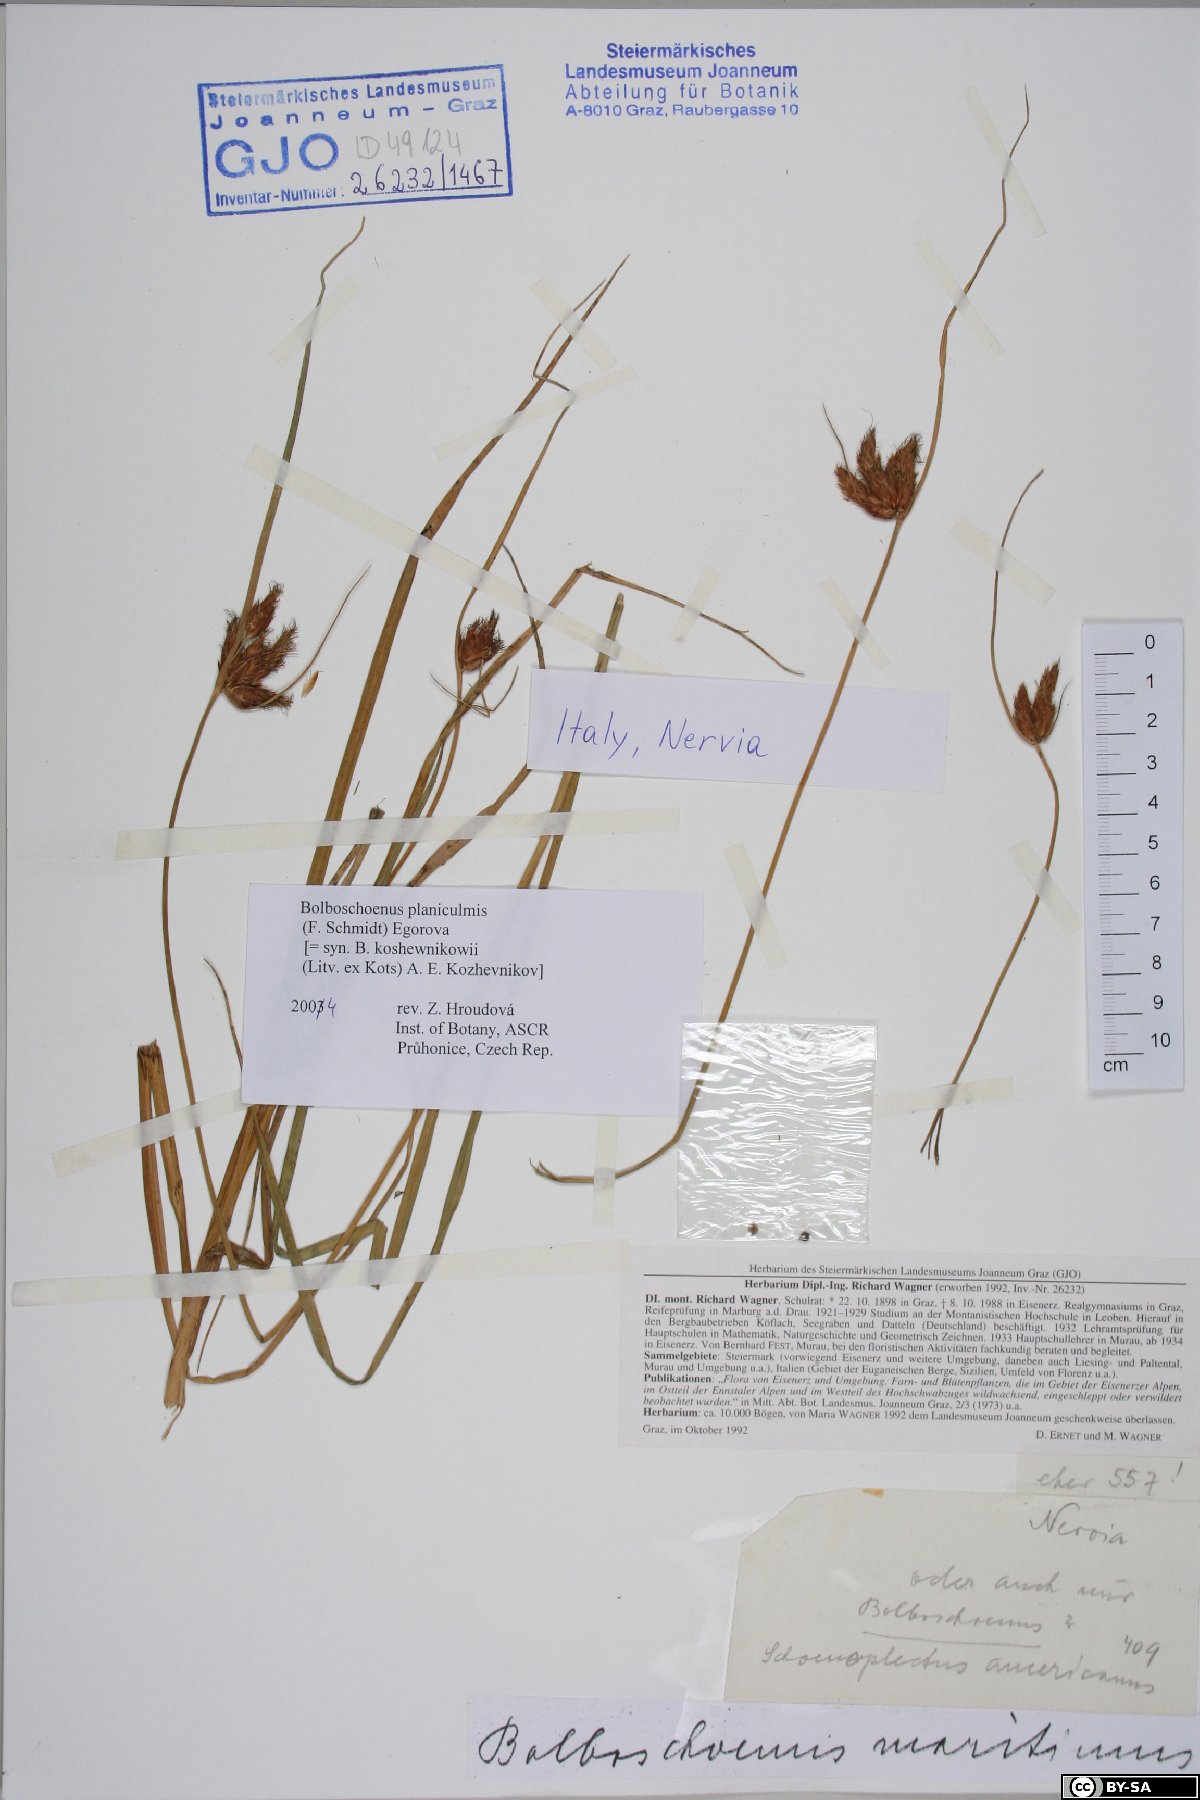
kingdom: Plantae
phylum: Tracheophyta
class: Liliopsida
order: Poales
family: Cyperaceae
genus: Bolboschoenus
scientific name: Bolboschoenus planiculmis
